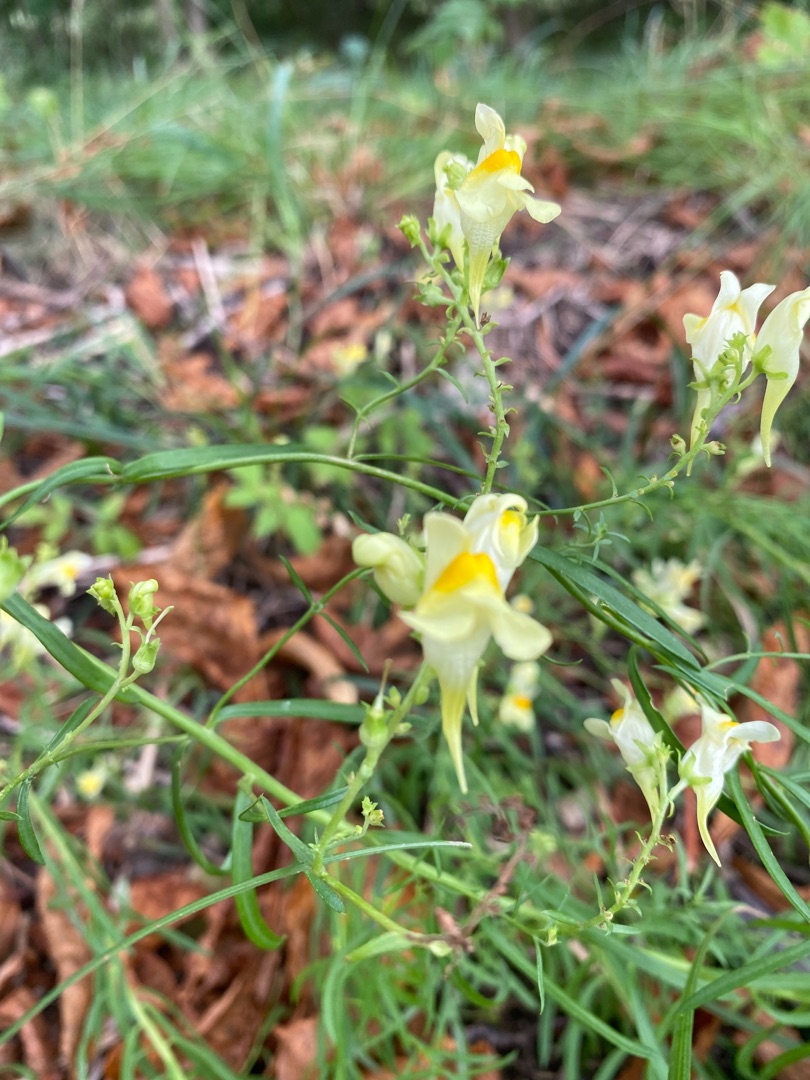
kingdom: Plantae
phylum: Tracheophyta
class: Magnoliopsida
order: Lamiales
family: Plantaginaceae
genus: Linaria
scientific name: Linaria vulgaris
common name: Almindelig torskemund
